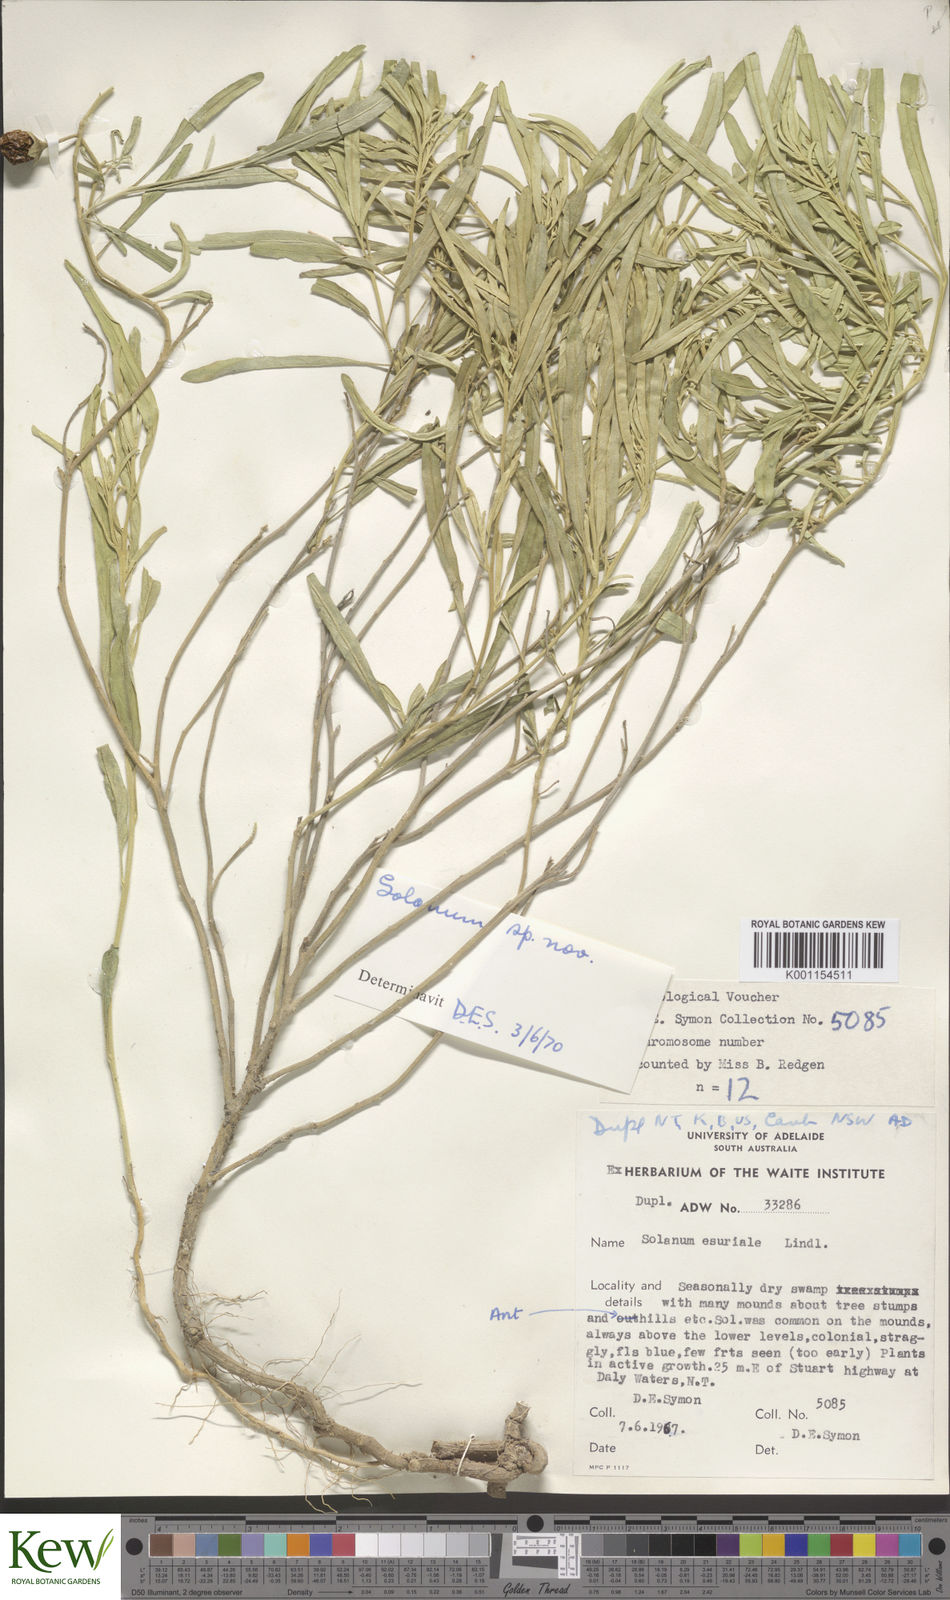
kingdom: Plantae
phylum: Tracheophyta
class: Magnoliopsida
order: Solanales
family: Solanaceae
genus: Solanum
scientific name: Solanum esuriale
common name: Wild tomato
